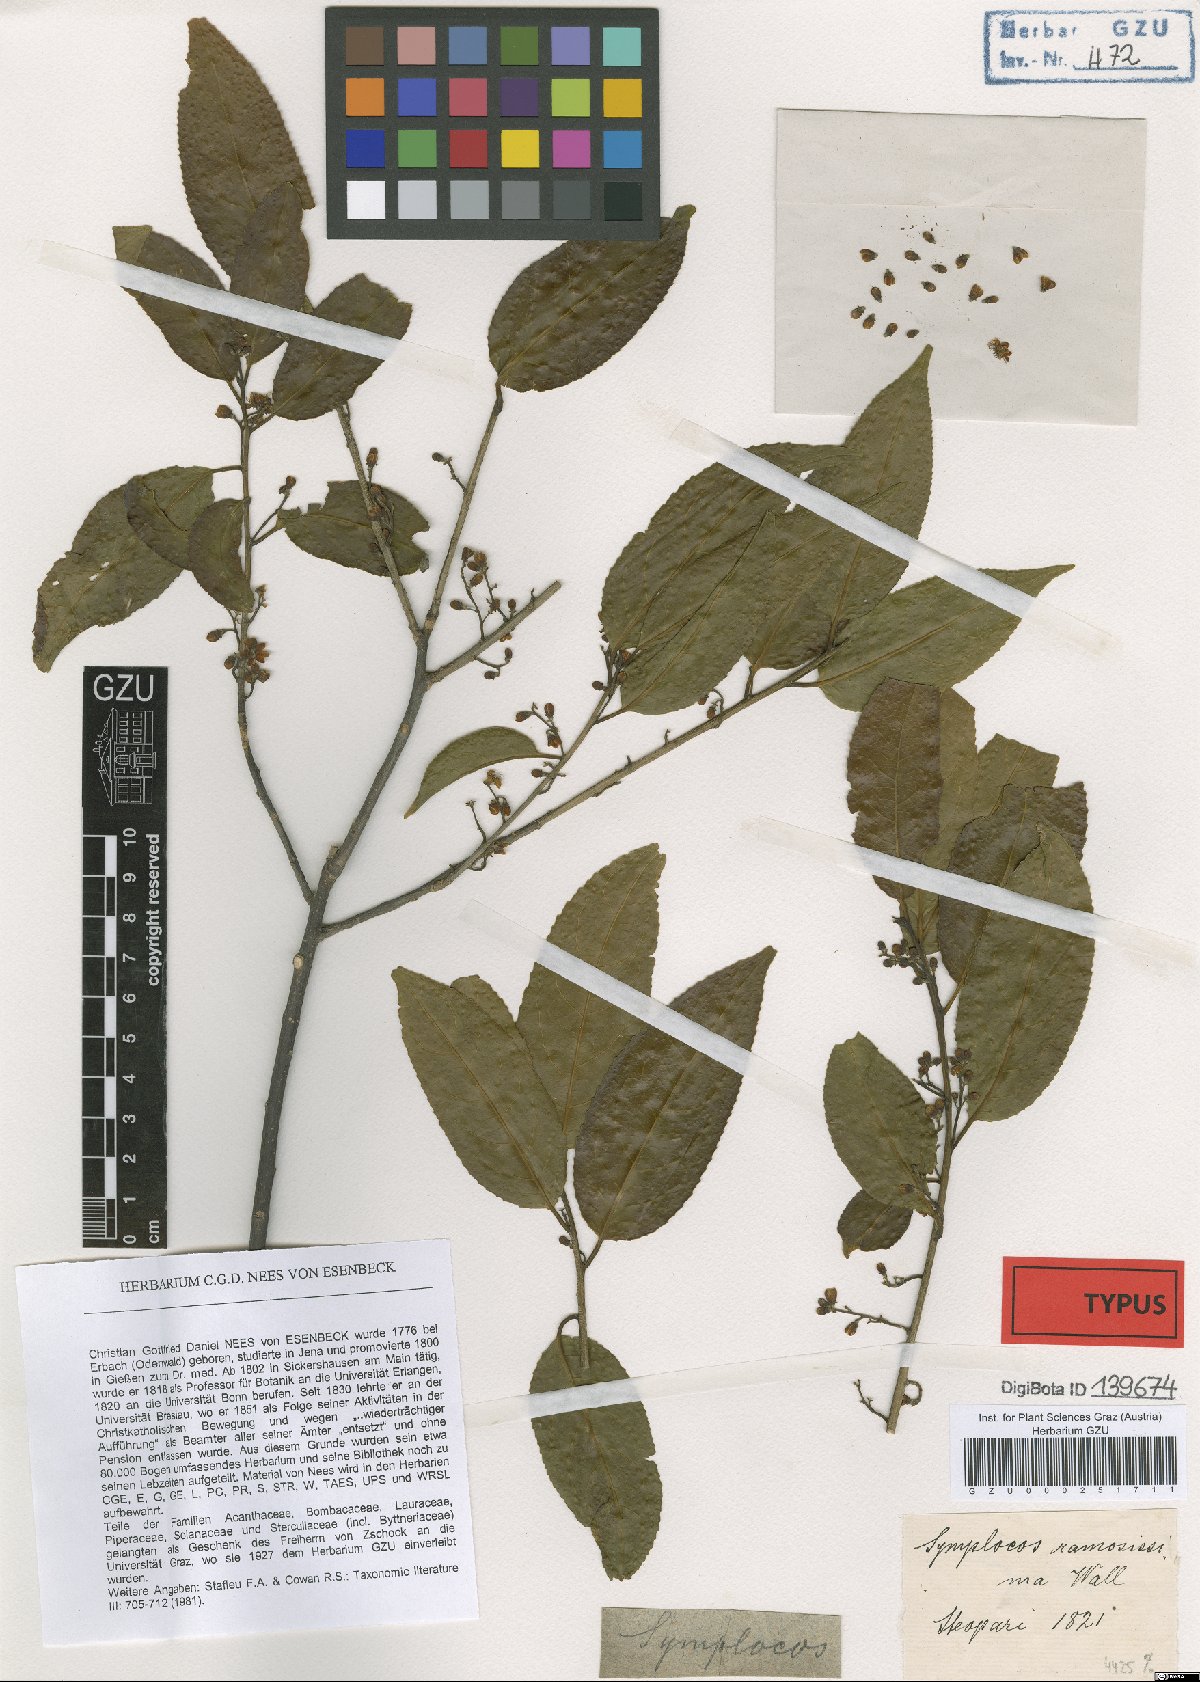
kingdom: Plantae
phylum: Tracheophyta
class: Magnoliopsida
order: Ericales
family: Symplocaceae
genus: Symplocos
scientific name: Symplocos ramosissima
